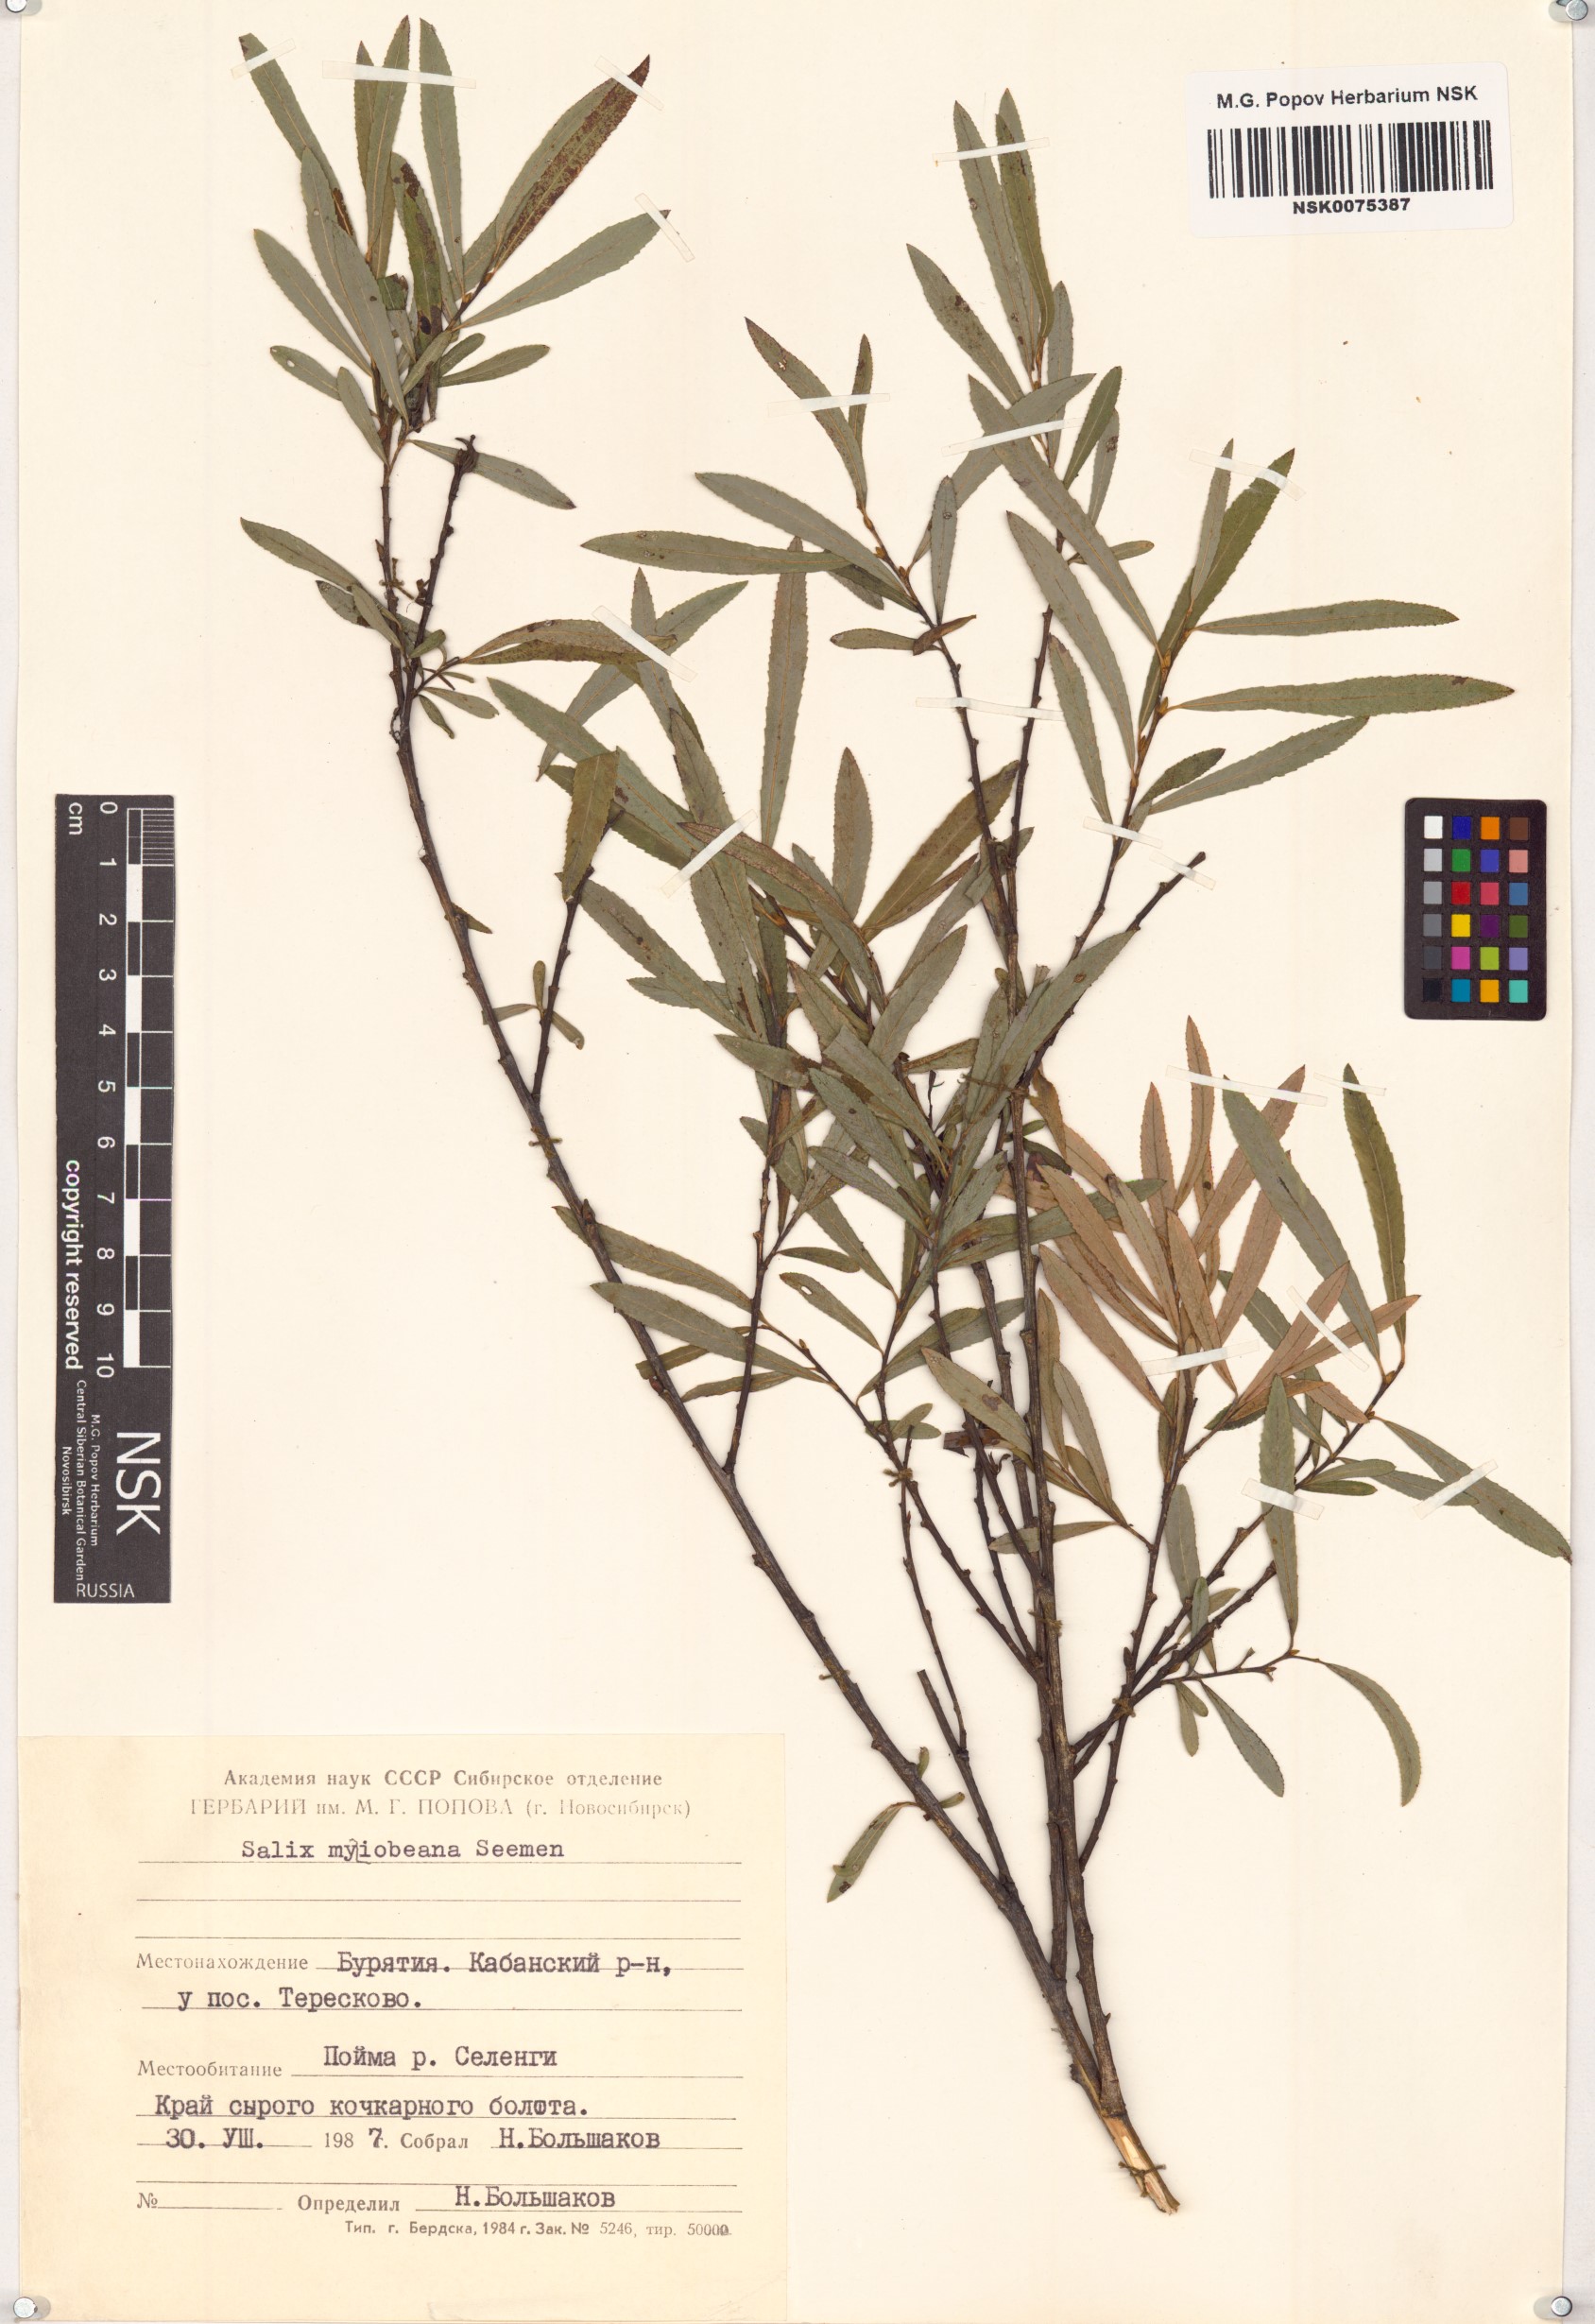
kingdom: Plantae
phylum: Tracheophyta
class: Magnoliopsida
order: Malpighiales
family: Salicaceae
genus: Salix
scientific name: Salix miyabeana
